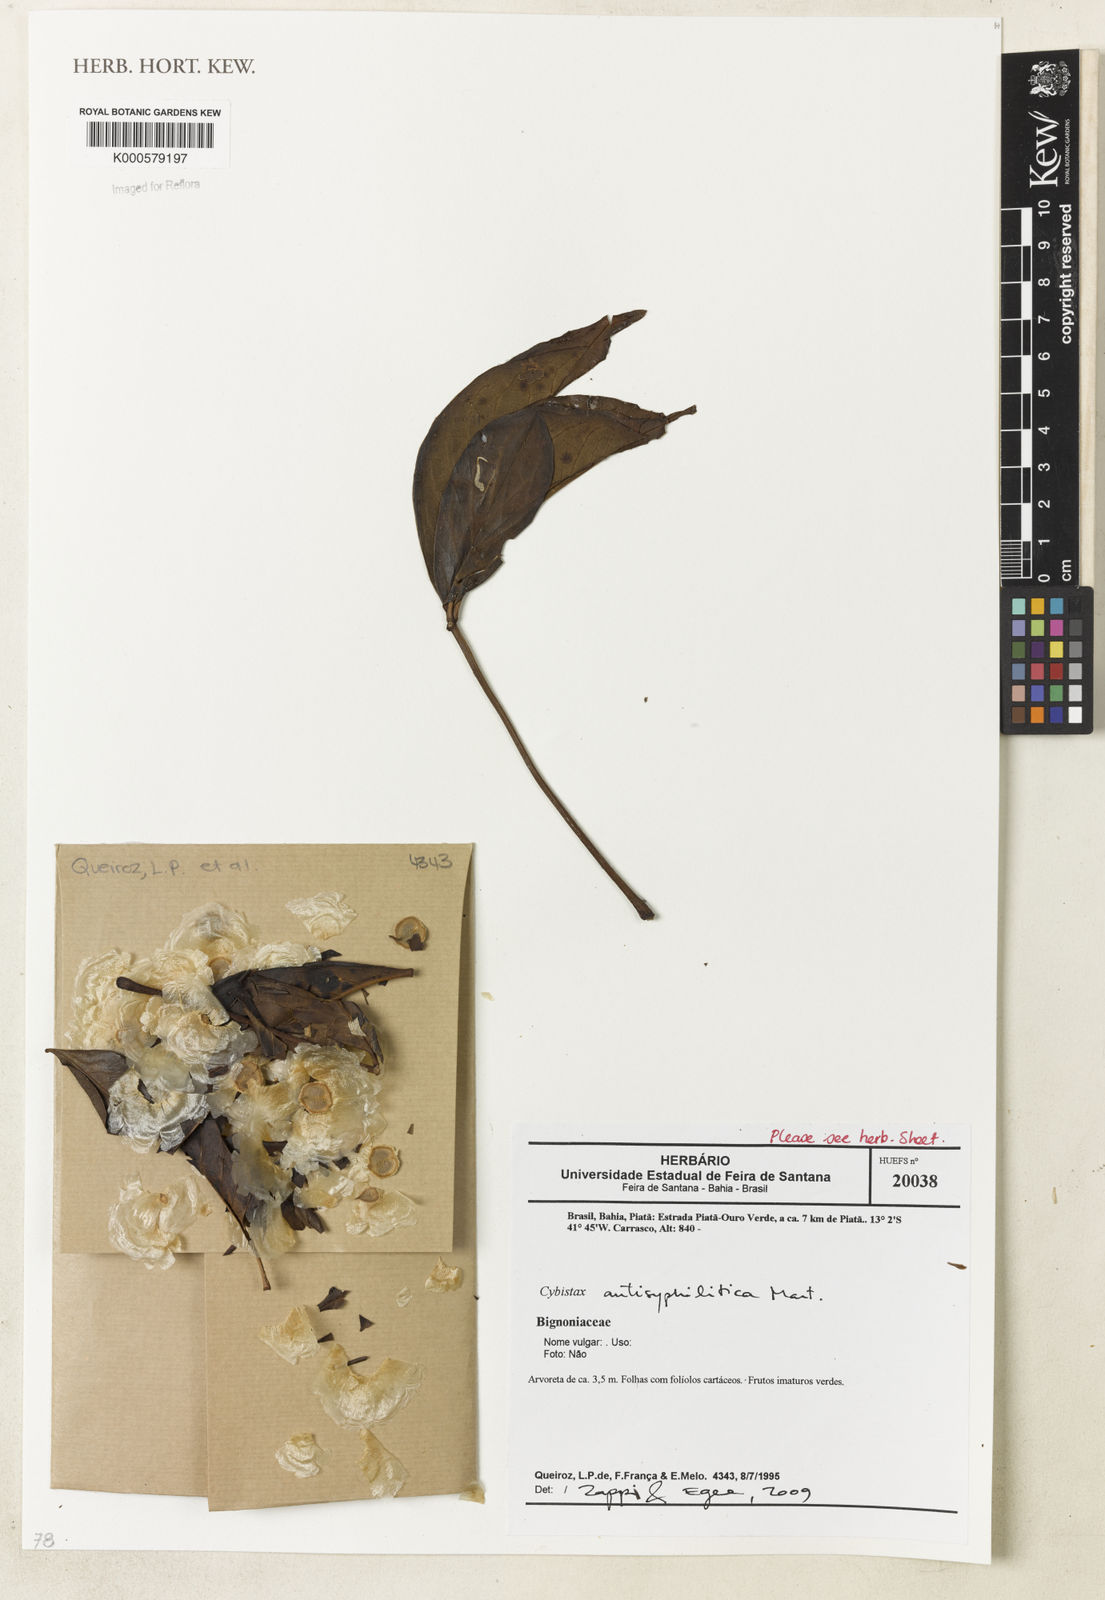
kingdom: Plantae
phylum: Tracheophyta
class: Magnoliopsida
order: Lamiales
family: Bignoniaceae
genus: Cybistax
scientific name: Cybistax antisyphilitica
